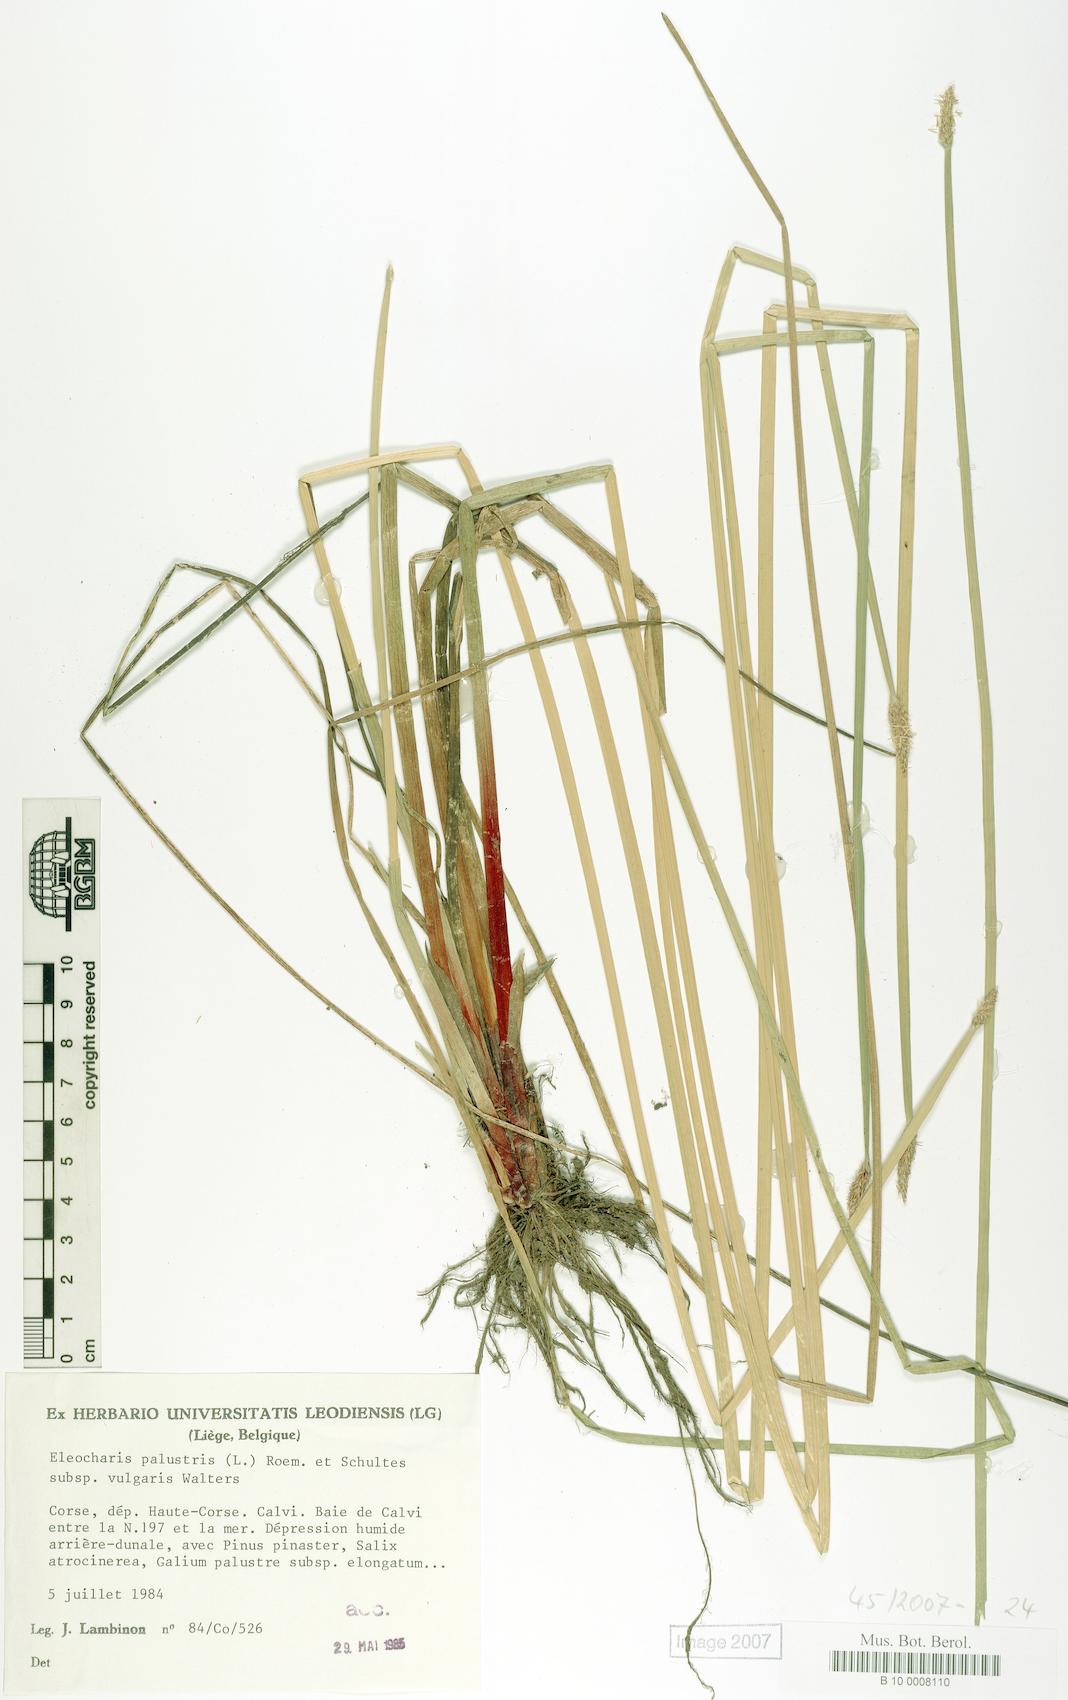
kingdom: Plantae
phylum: Tracheophyta
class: Liliopsida
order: Poales
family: Cyperaceae
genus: Eleocharis
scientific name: Eleocharis palustris
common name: Common spike-rush
